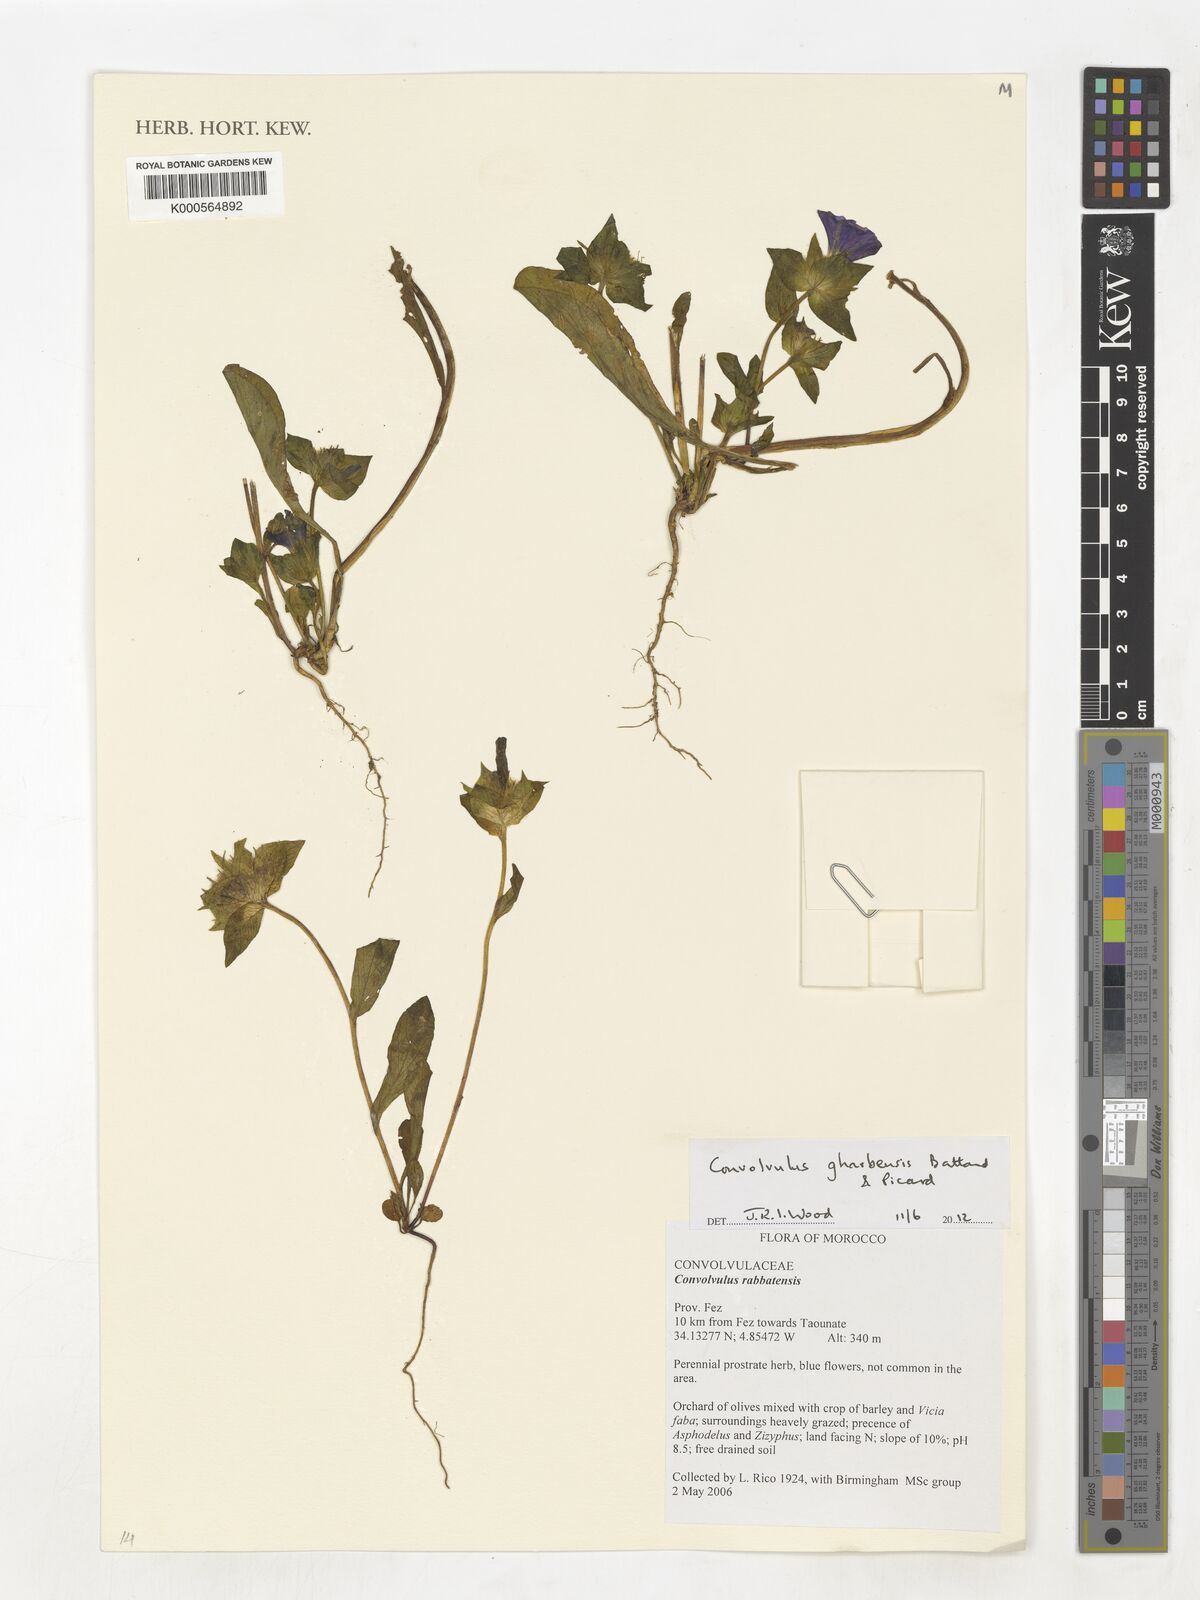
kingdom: Plantae
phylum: Tracheophyta
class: Magnoliopsida
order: Solanales
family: Convolvulaceae
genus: Convolvulus
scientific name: Convolvulus
